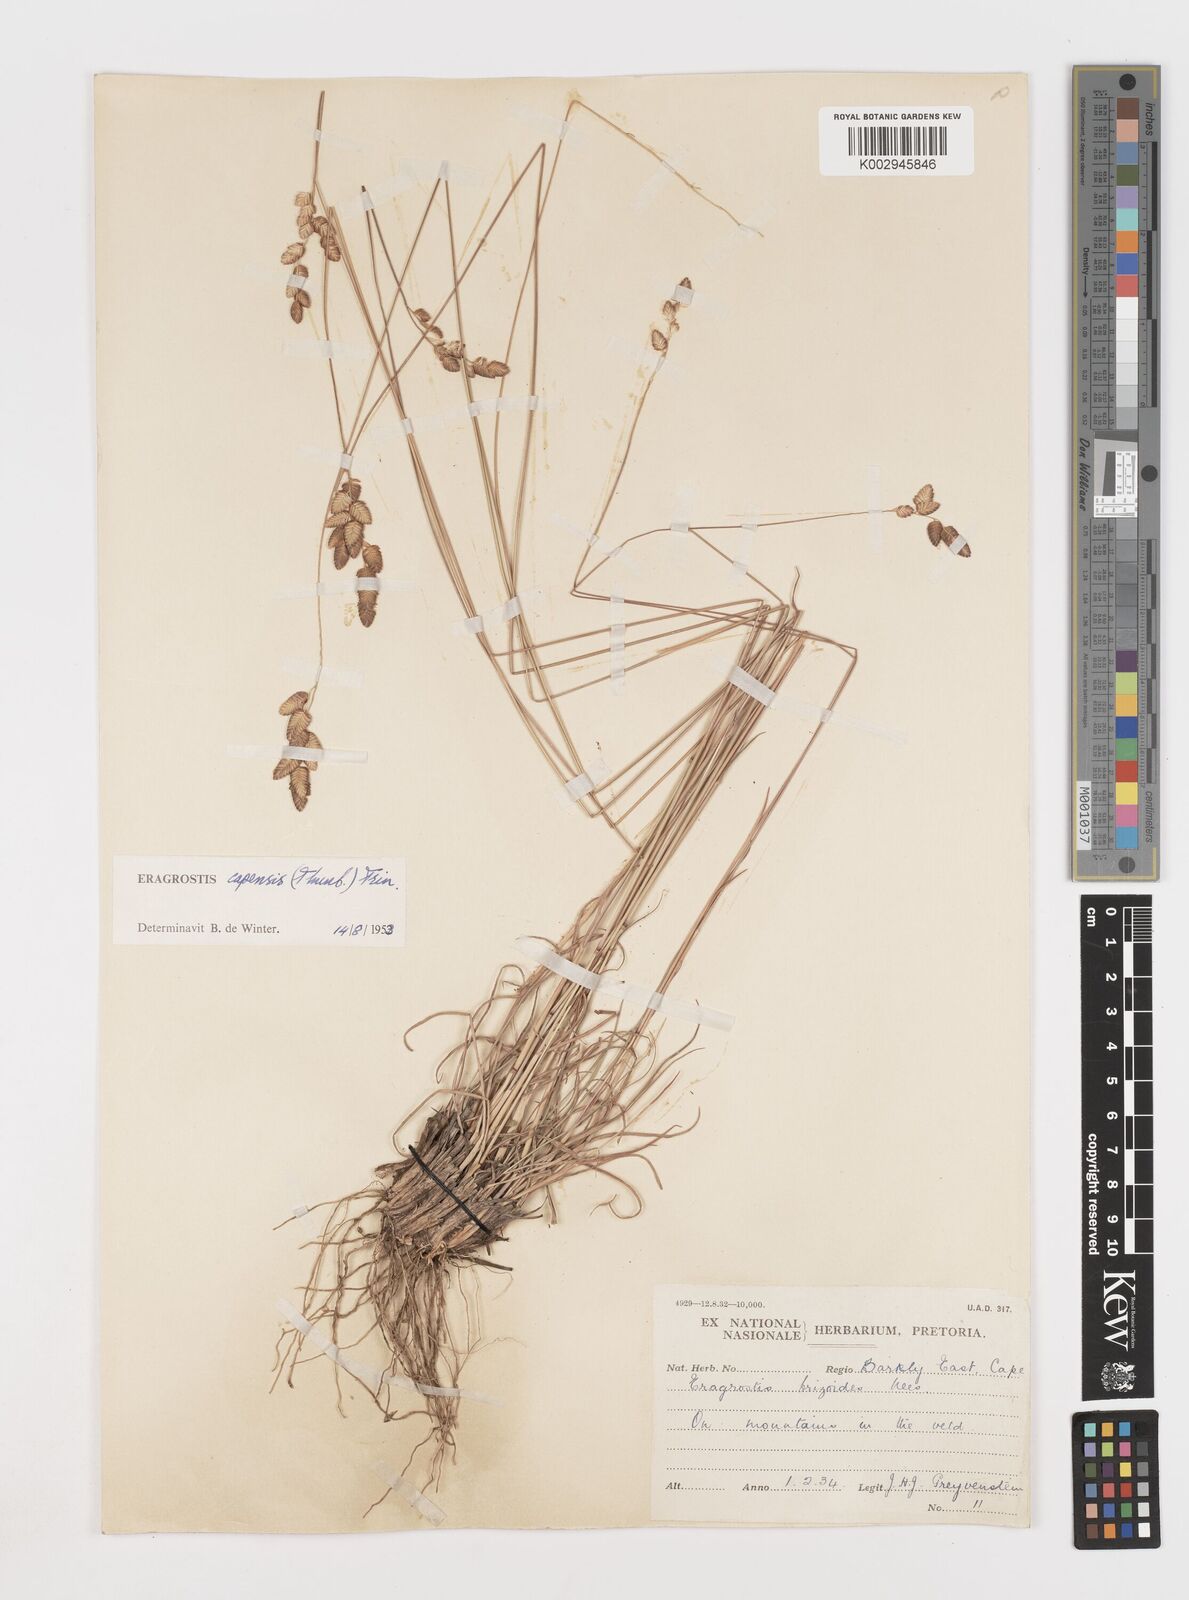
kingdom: Plantae
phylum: Tracheophyta
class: Liliopsida
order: Poales
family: Poaceae
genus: Eragrostis
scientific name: Eragrostis capensis
